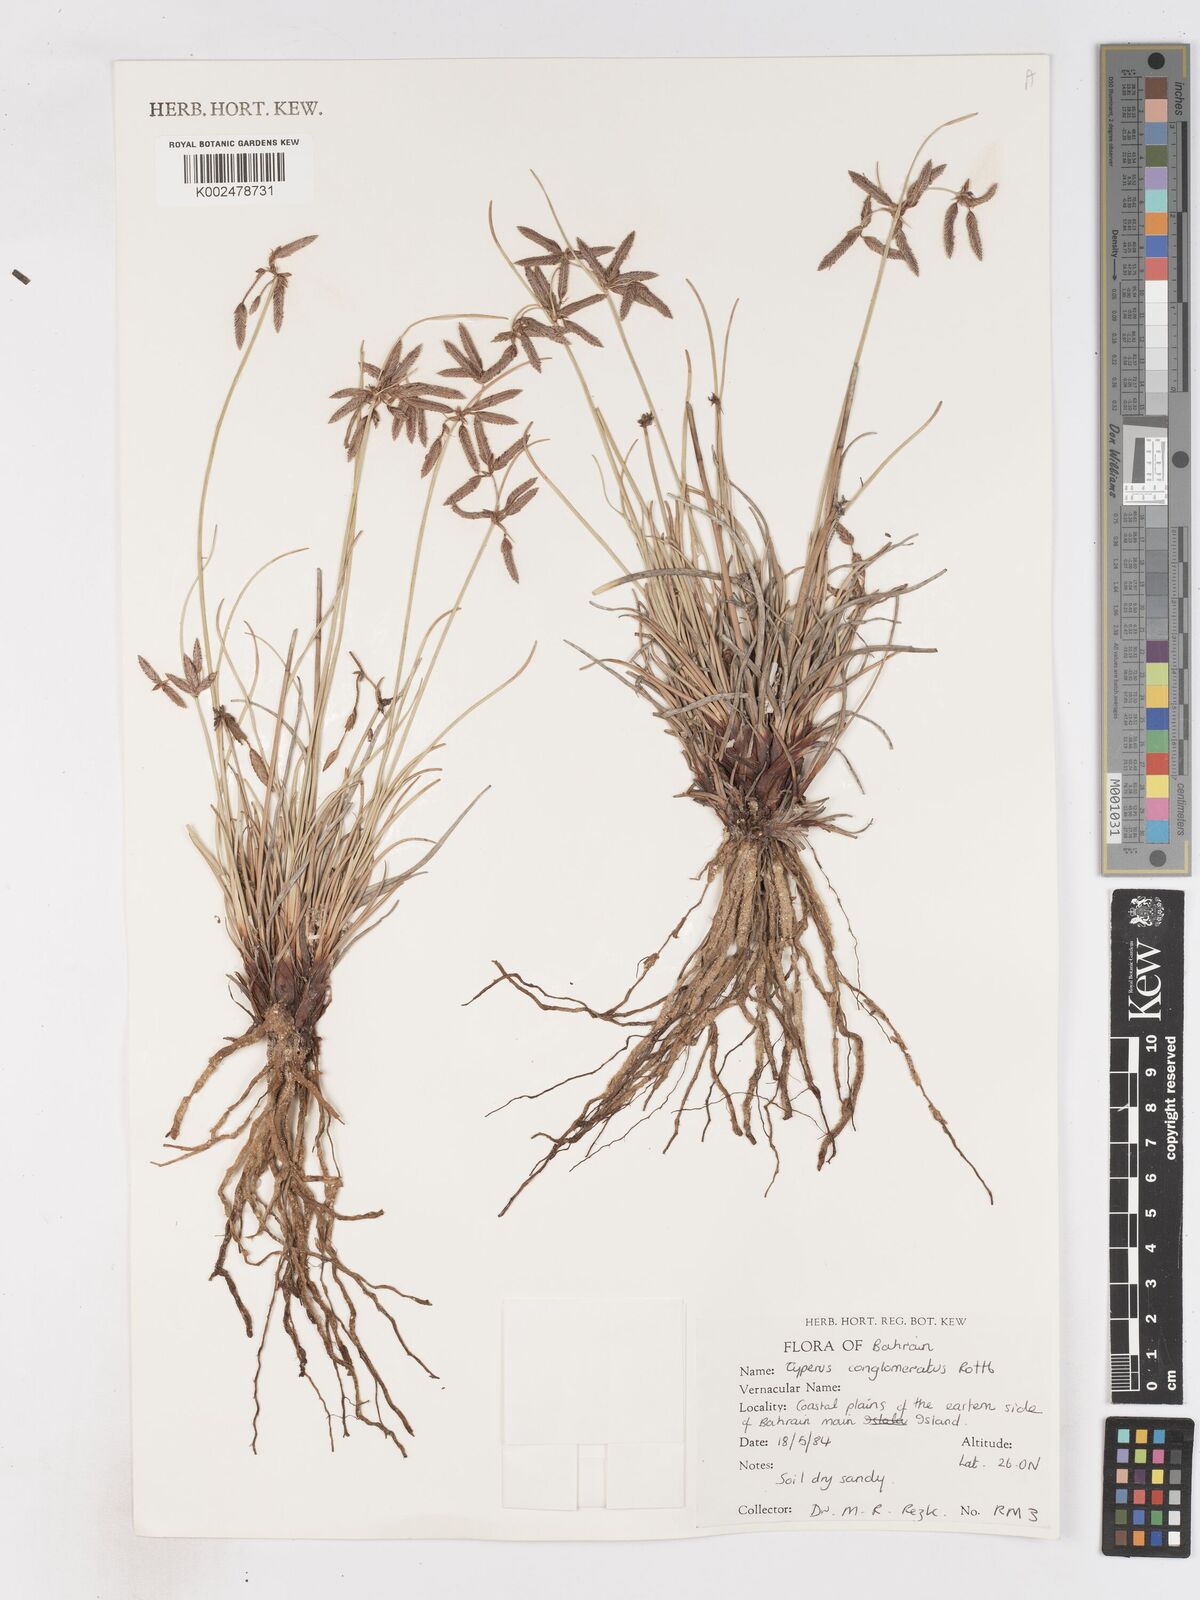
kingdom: Plantae
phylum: Tracheophyta
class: Liliopsida
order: Poales
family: Cyperaceae
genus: Cyperus
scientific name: Cyperus conglomeratus
